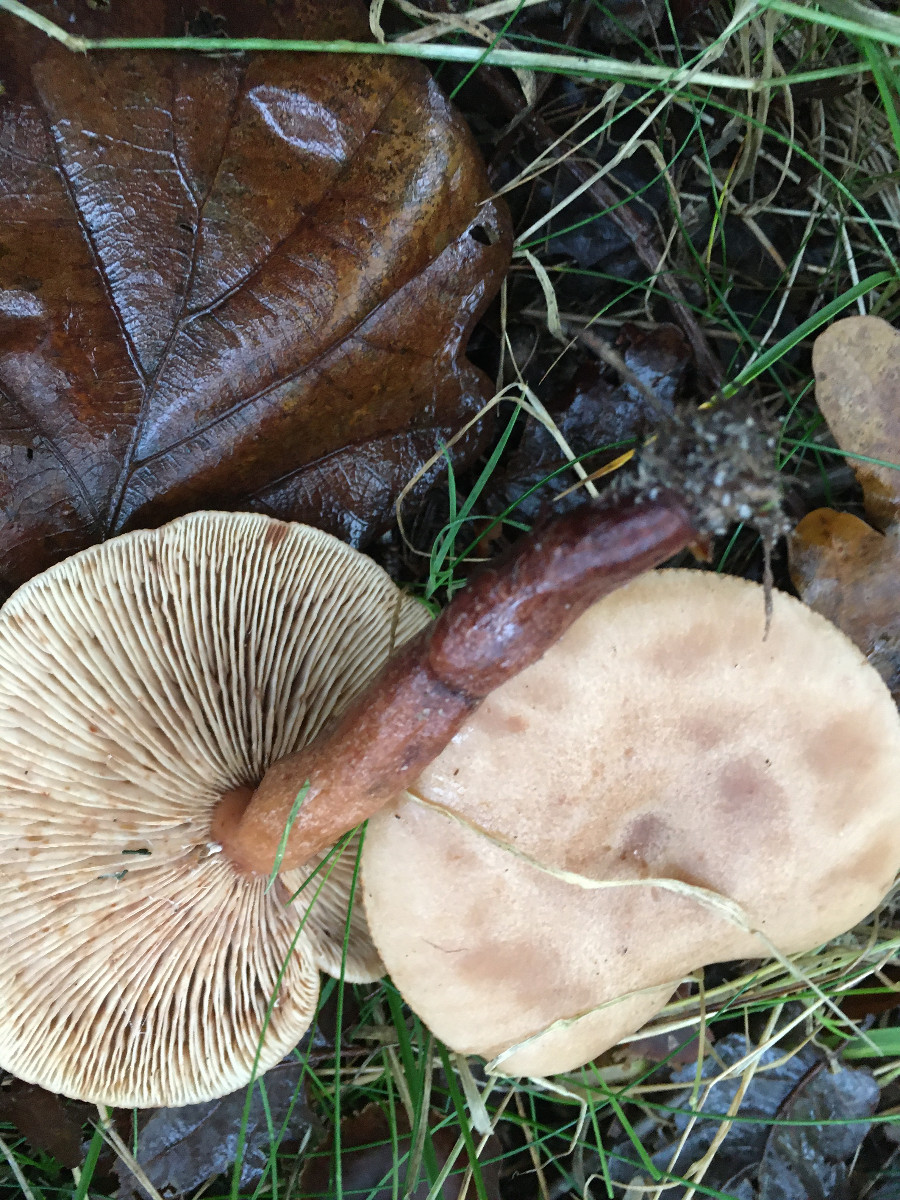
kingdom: Fungi
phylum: Basidiomycota
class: Agaricomycetes
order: Russulales
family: Russulaceae
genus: Lactarius
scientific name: Lactarius quietus
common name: ege-mælkehat
